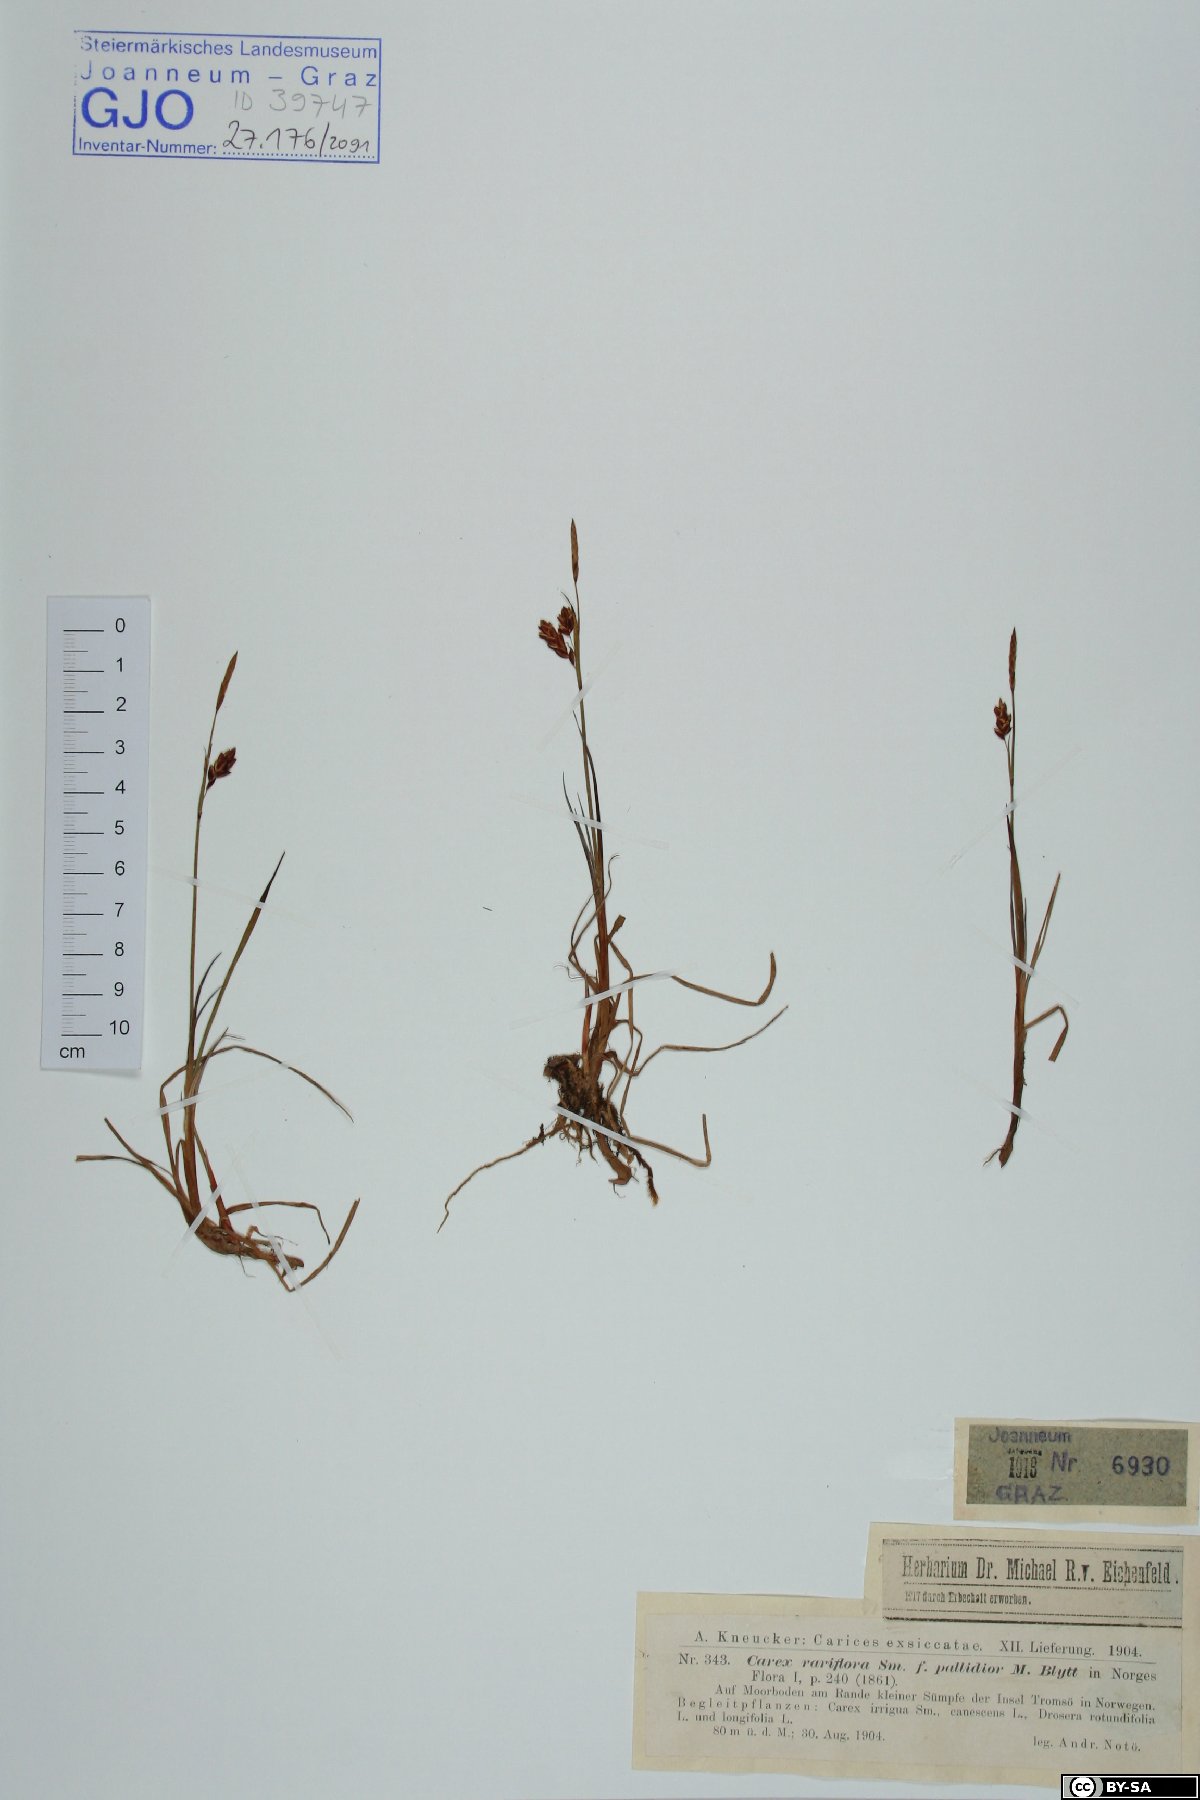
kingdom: Plantae
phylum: Tracheophyta
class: Liliopsida
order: Poales
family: Cyperaceae
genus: Carex
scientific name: Carex rariflora
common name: Loose-flowered alpine sedge
